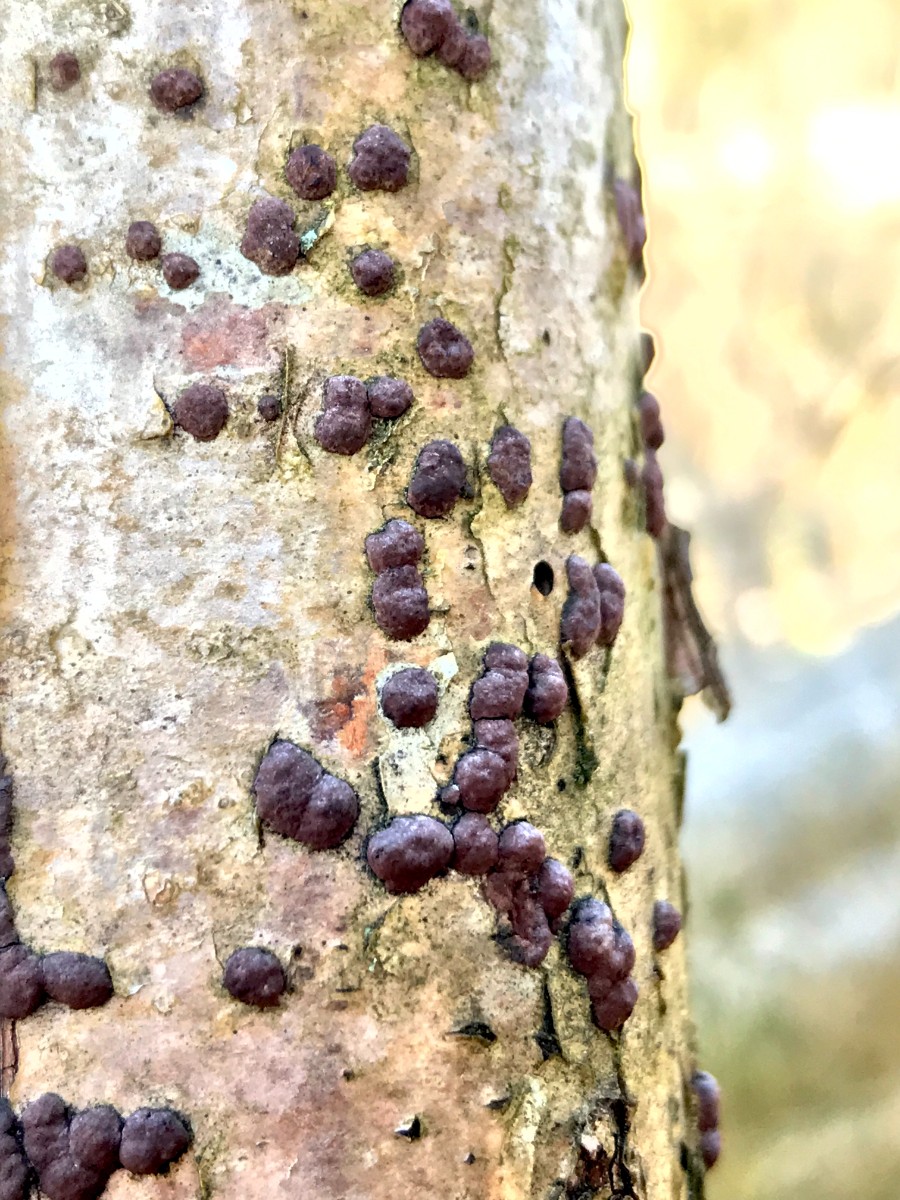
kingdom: Fungi
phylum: Ascomycota
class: Sordariomycetes
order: Xylariales
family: Hypoxylaceae
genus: Hypoxylon
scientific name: Hypoxylon fuscum
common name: kegleformet kulbær
